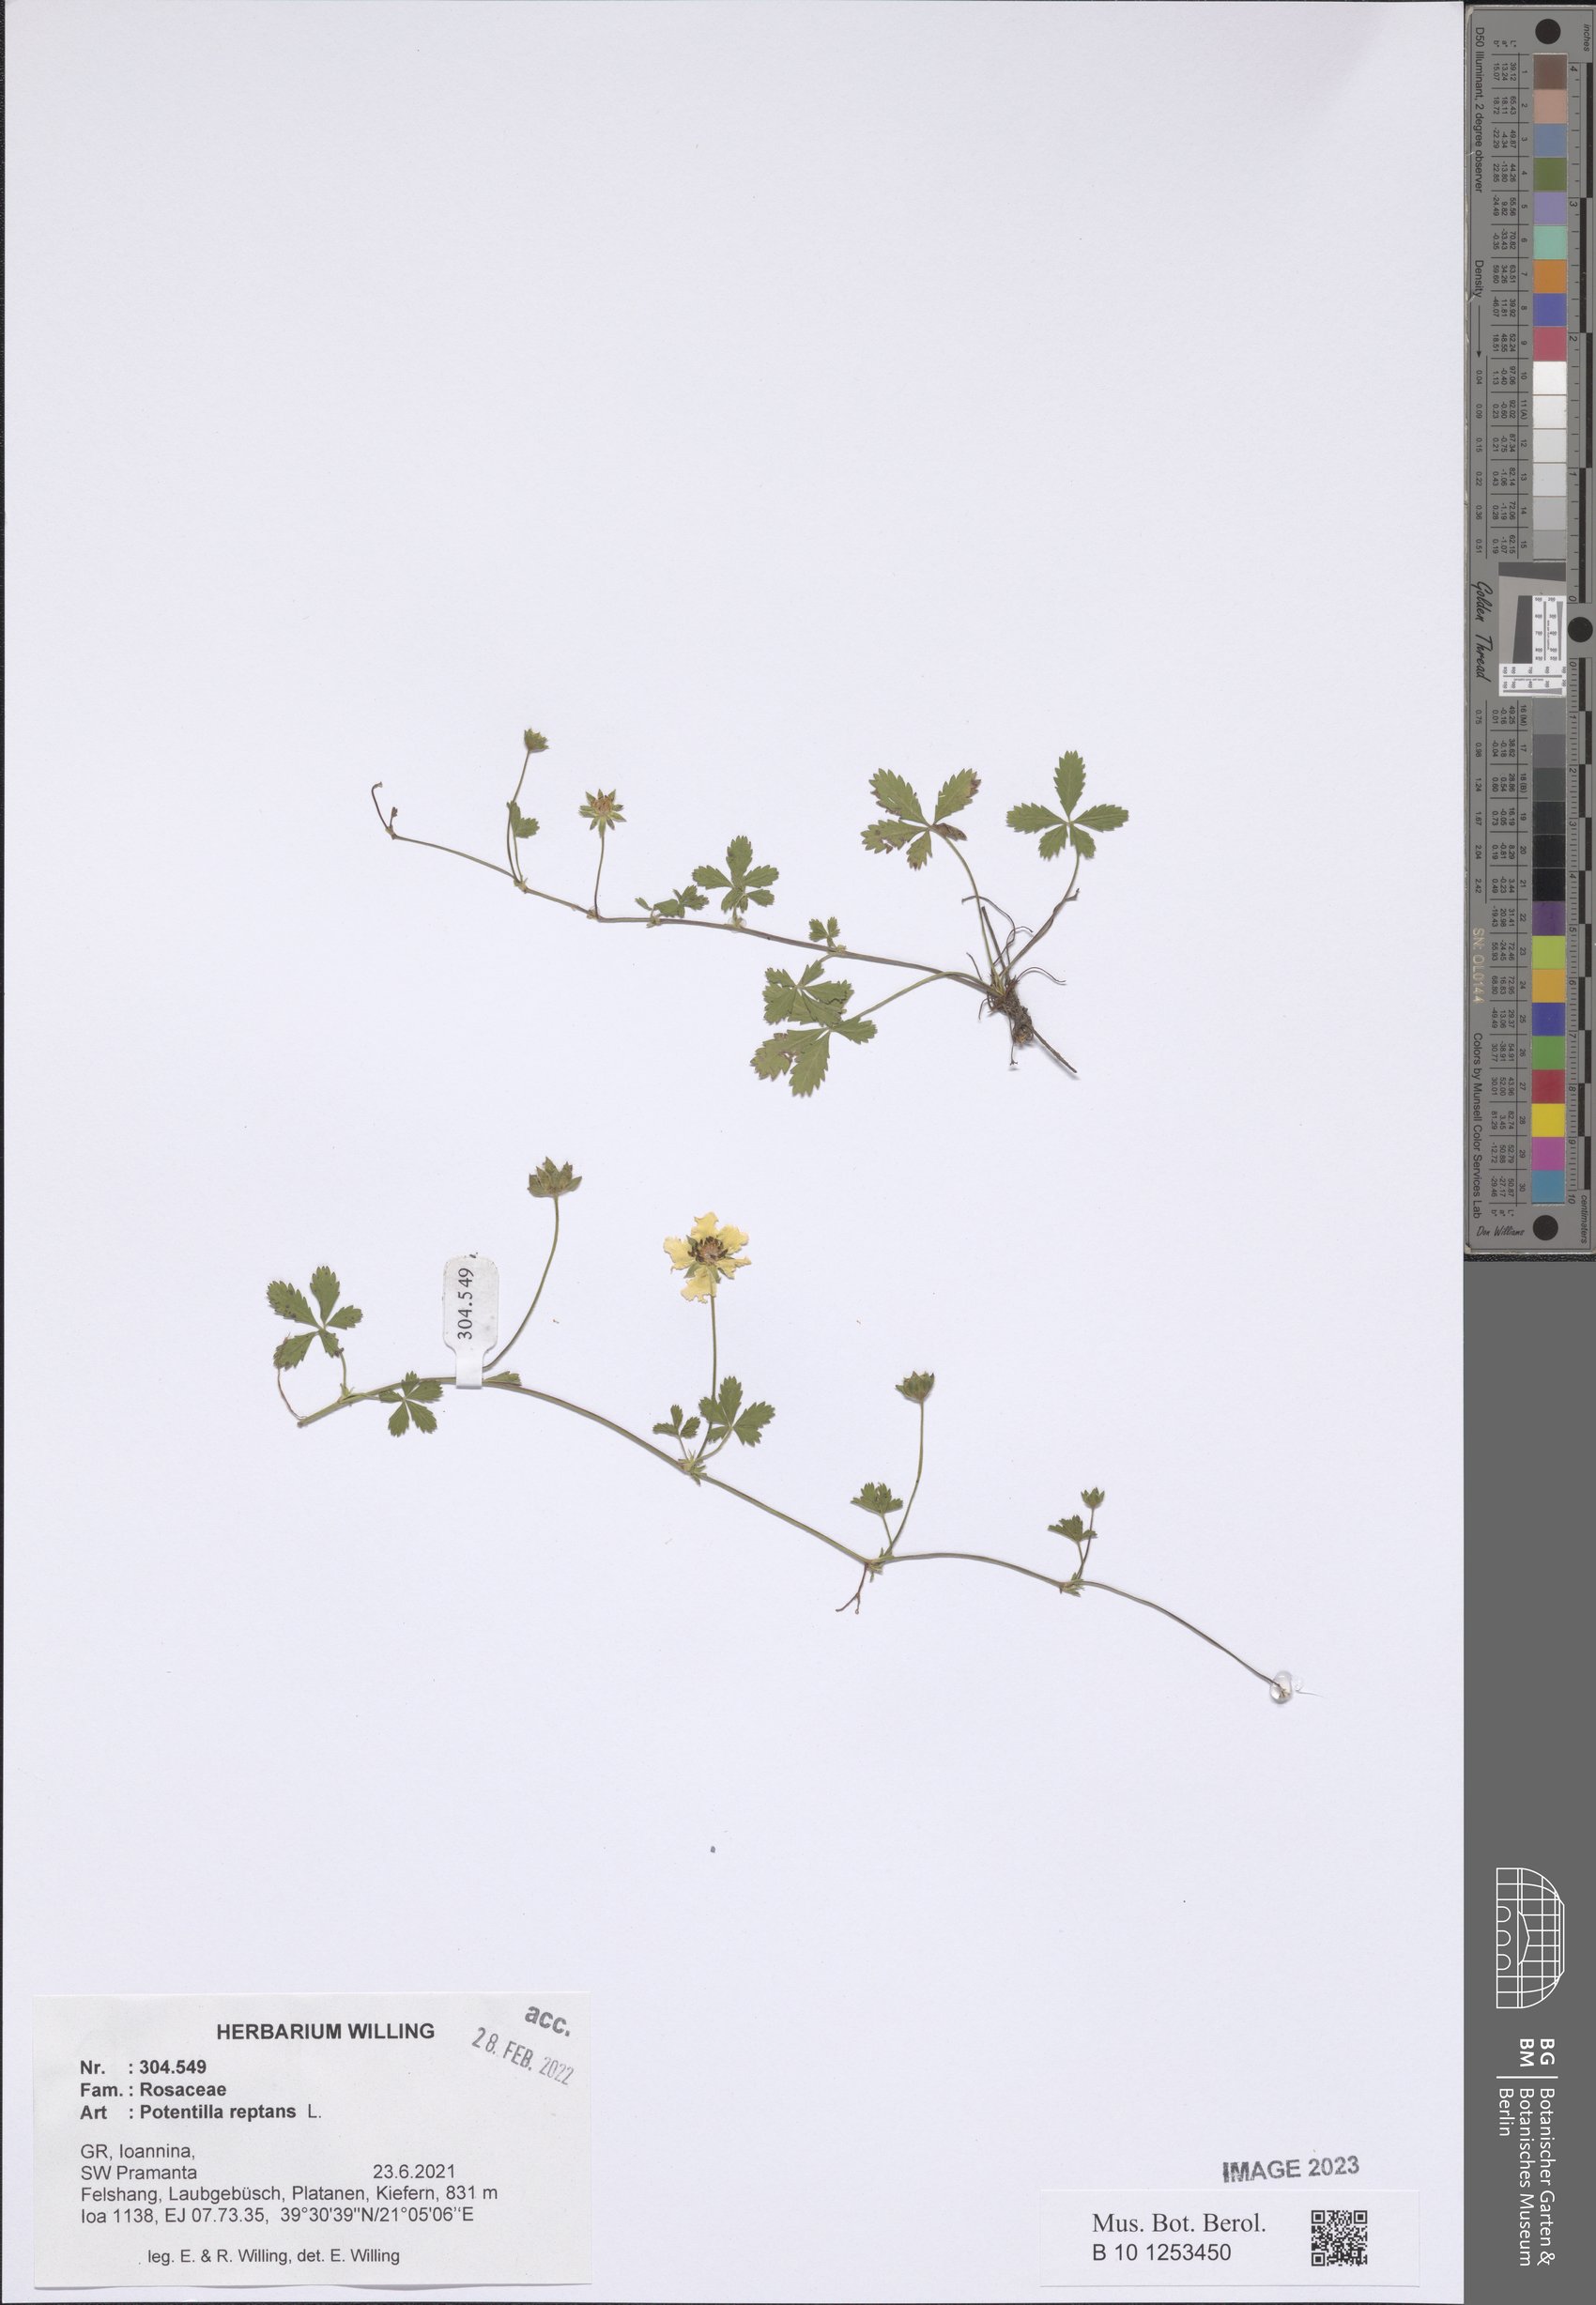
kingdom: Plantae
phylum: Tracheophyta
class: Magnoliopsida
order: Rosales
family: Rosaceae
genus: Potentilla
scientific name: Potentilla reptans
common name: Creeping cinquefoil
